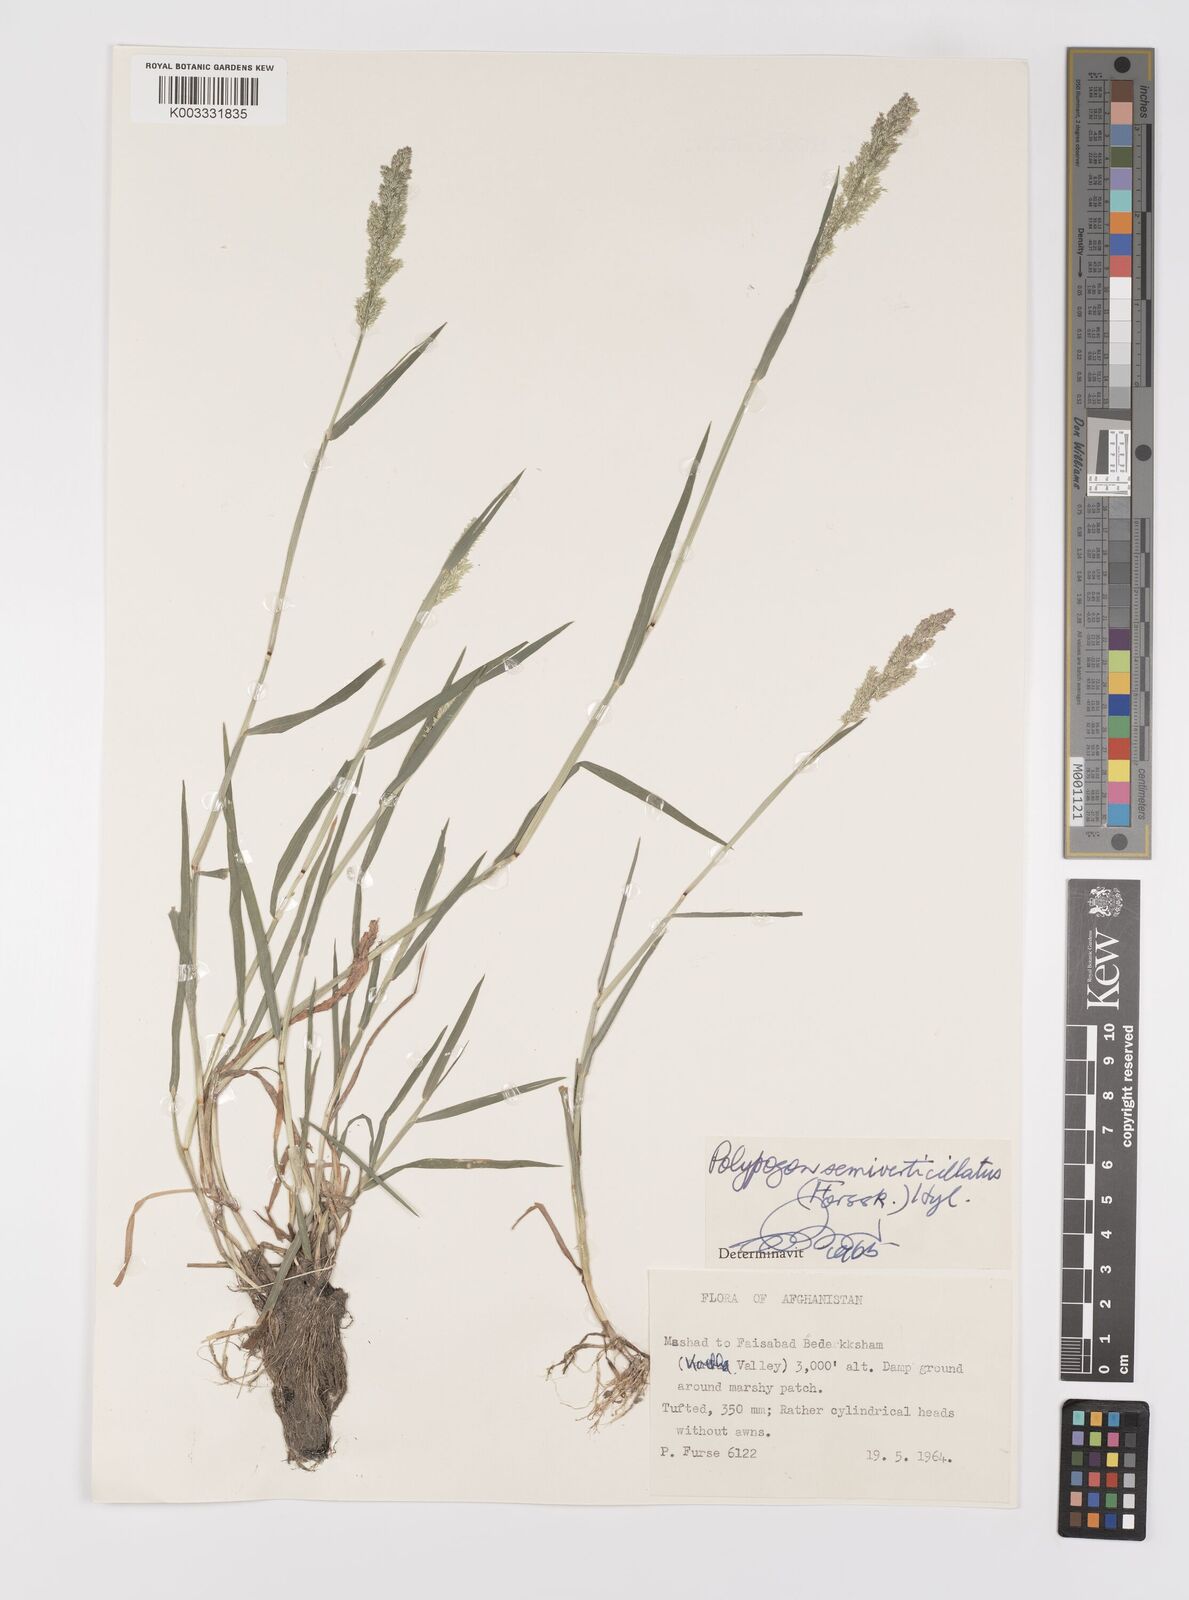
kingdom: Plantae
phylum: Tracheophyta
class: Liliopsida
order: Poales
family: Poaceae
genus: Polypogon
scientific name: Polypogon viridis
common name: Water bent
